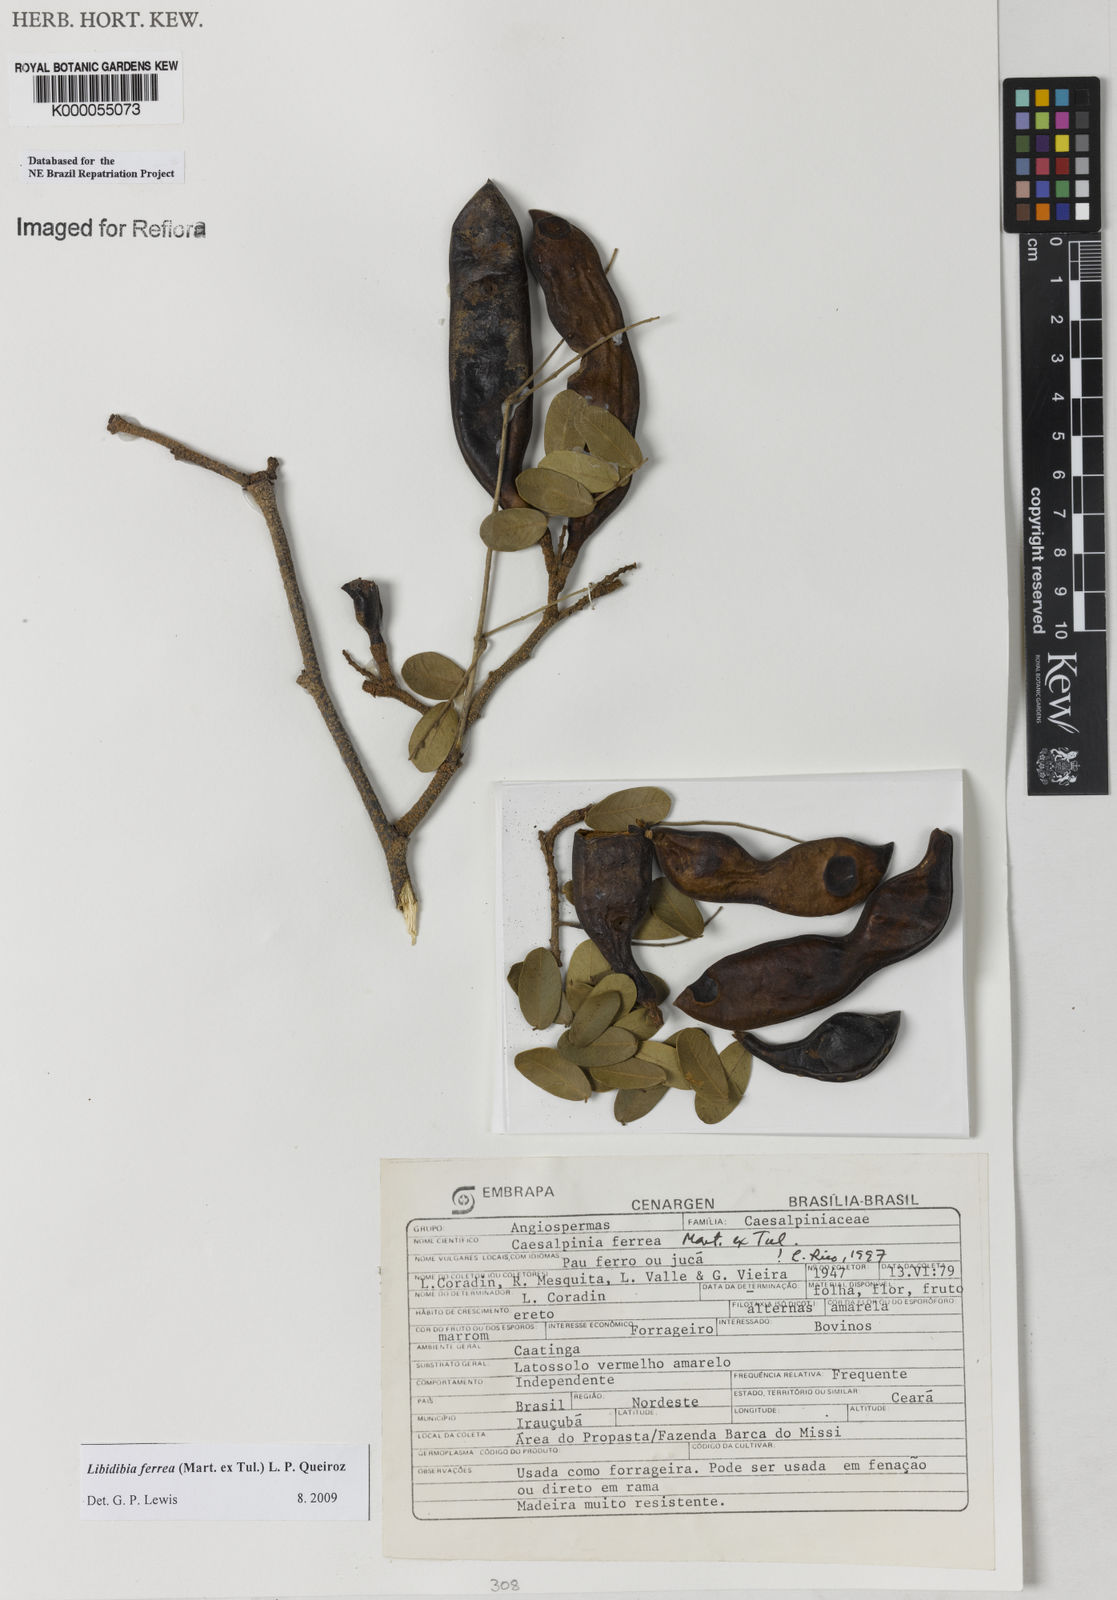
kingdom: Plantae
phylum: Tracheophyta
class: Magnoliopsida
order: Fabales
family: Fabaceae
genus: Libidibia
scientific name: Libidibia ferrea
